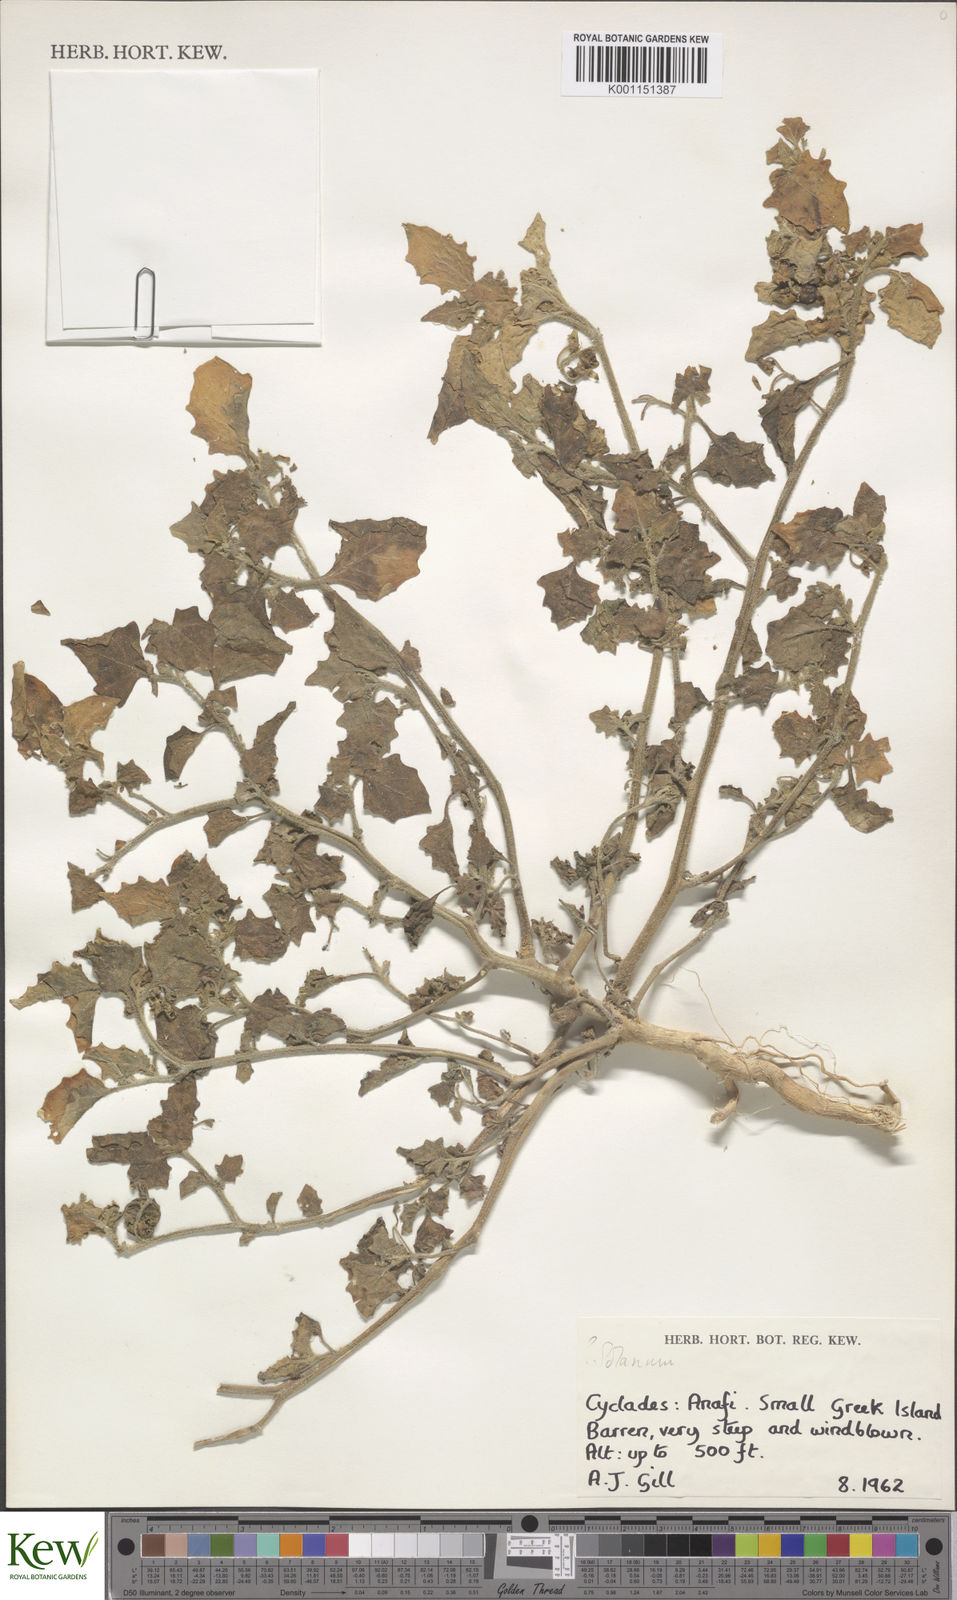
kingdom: Plantae
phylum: Tracheophyta
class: Magnoliopsida
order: Solanales
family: Solanaceae
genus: Solanum
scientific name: Solanum villosum
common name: Red nightshade
